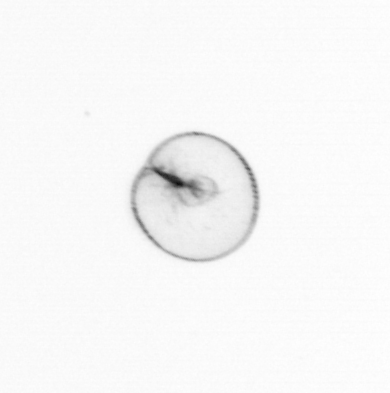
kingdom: Chromista
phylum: Myzozoa
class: Dinophyceae
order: Noctilucales
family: Noctilucaceae
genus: Noctiluca
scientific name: Noctiluca scintillans
